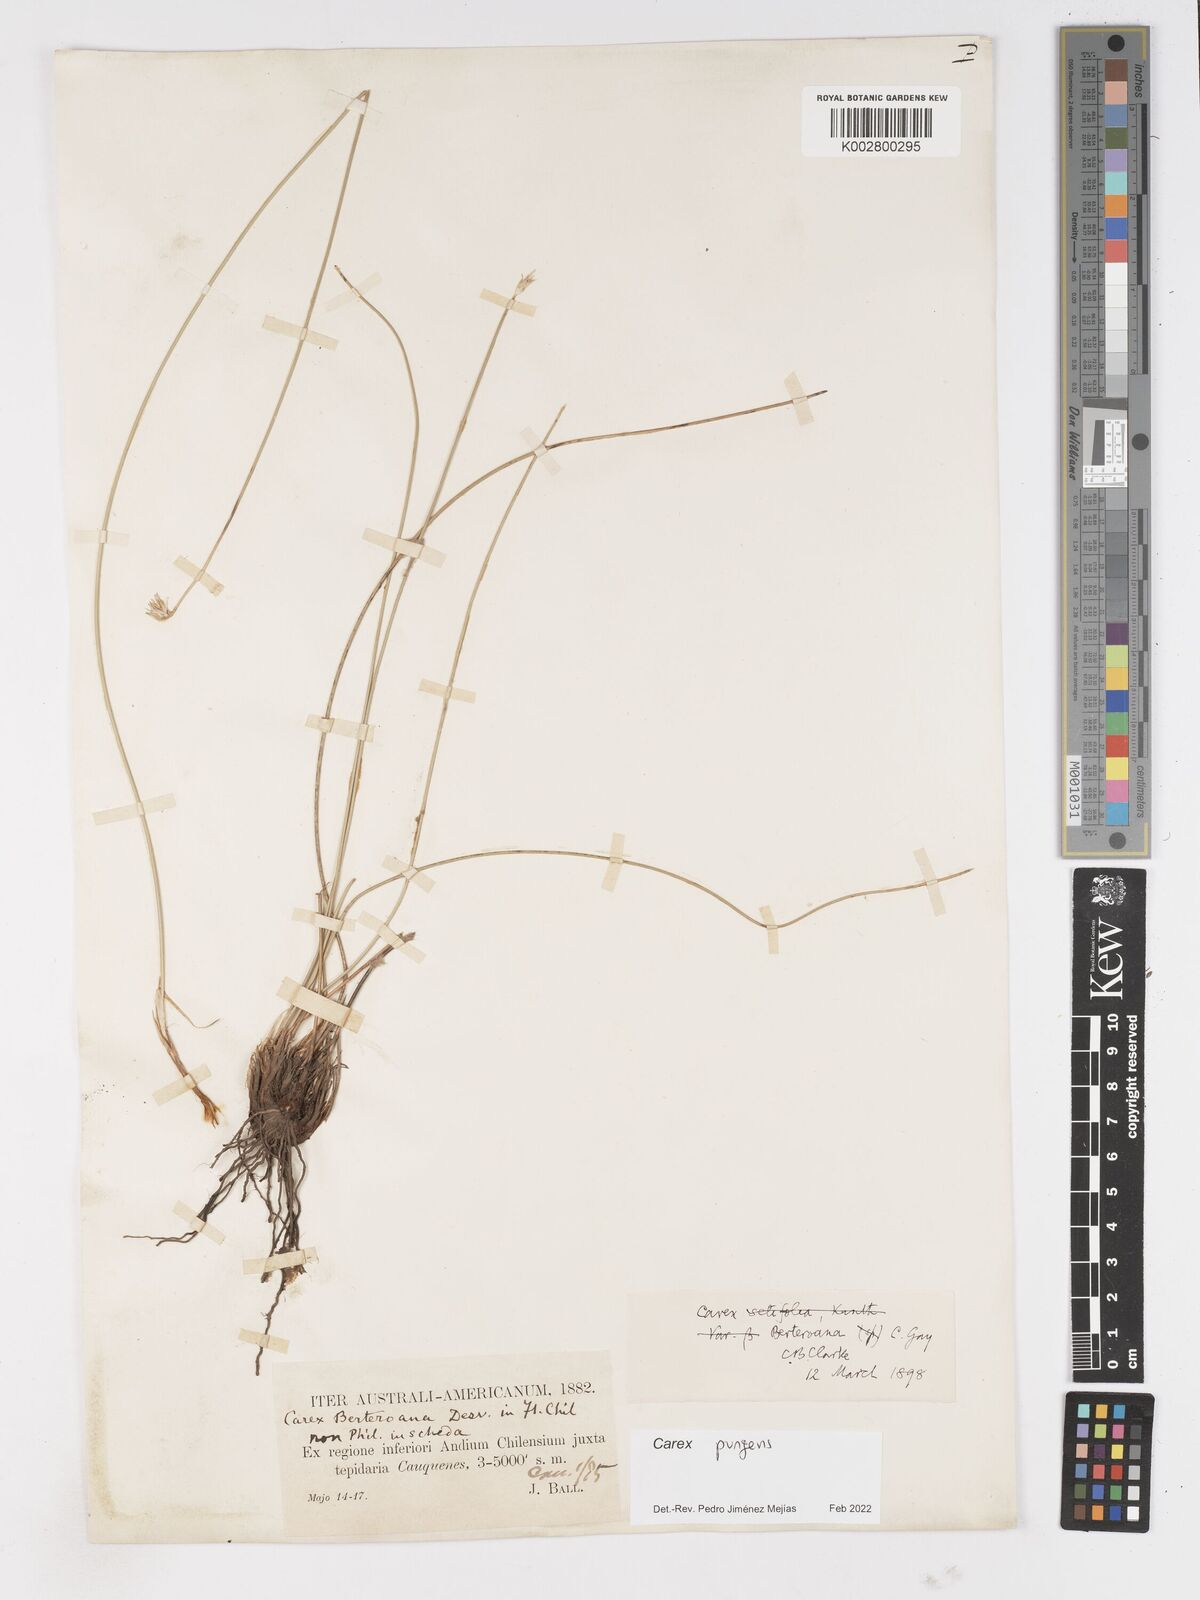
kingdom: Plantae
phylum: Tracheophyta
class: Liliopsida
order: Poales
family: Cyperaceae
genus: Carex
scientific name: Carex setifolia
